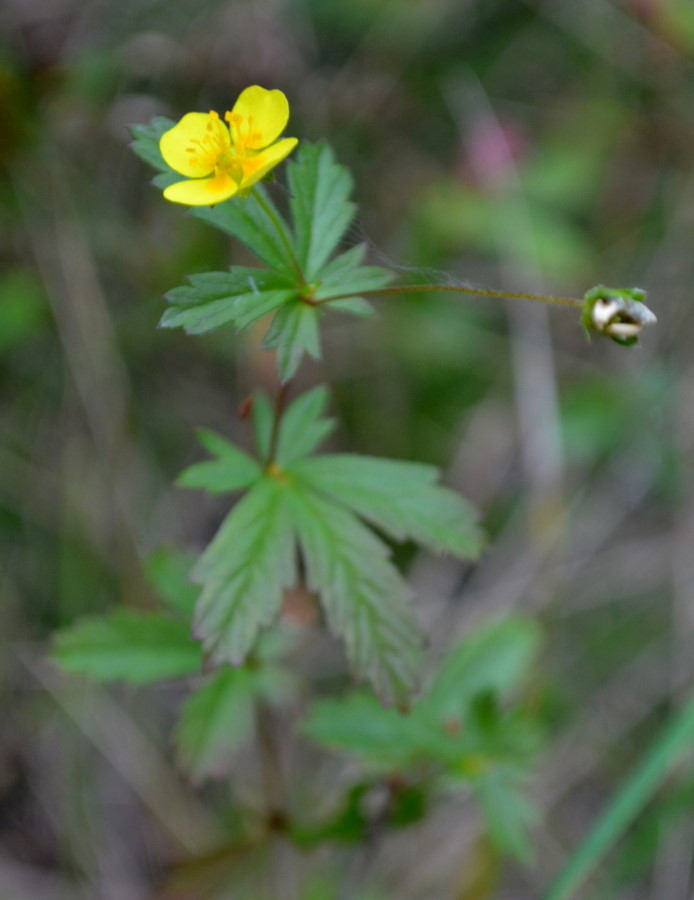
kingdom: Plantae
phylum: Tracheophyta
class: Magnoliopsida
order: Rosales
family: Rosaceae
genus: Potentilla
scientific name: Potentilla erecta
